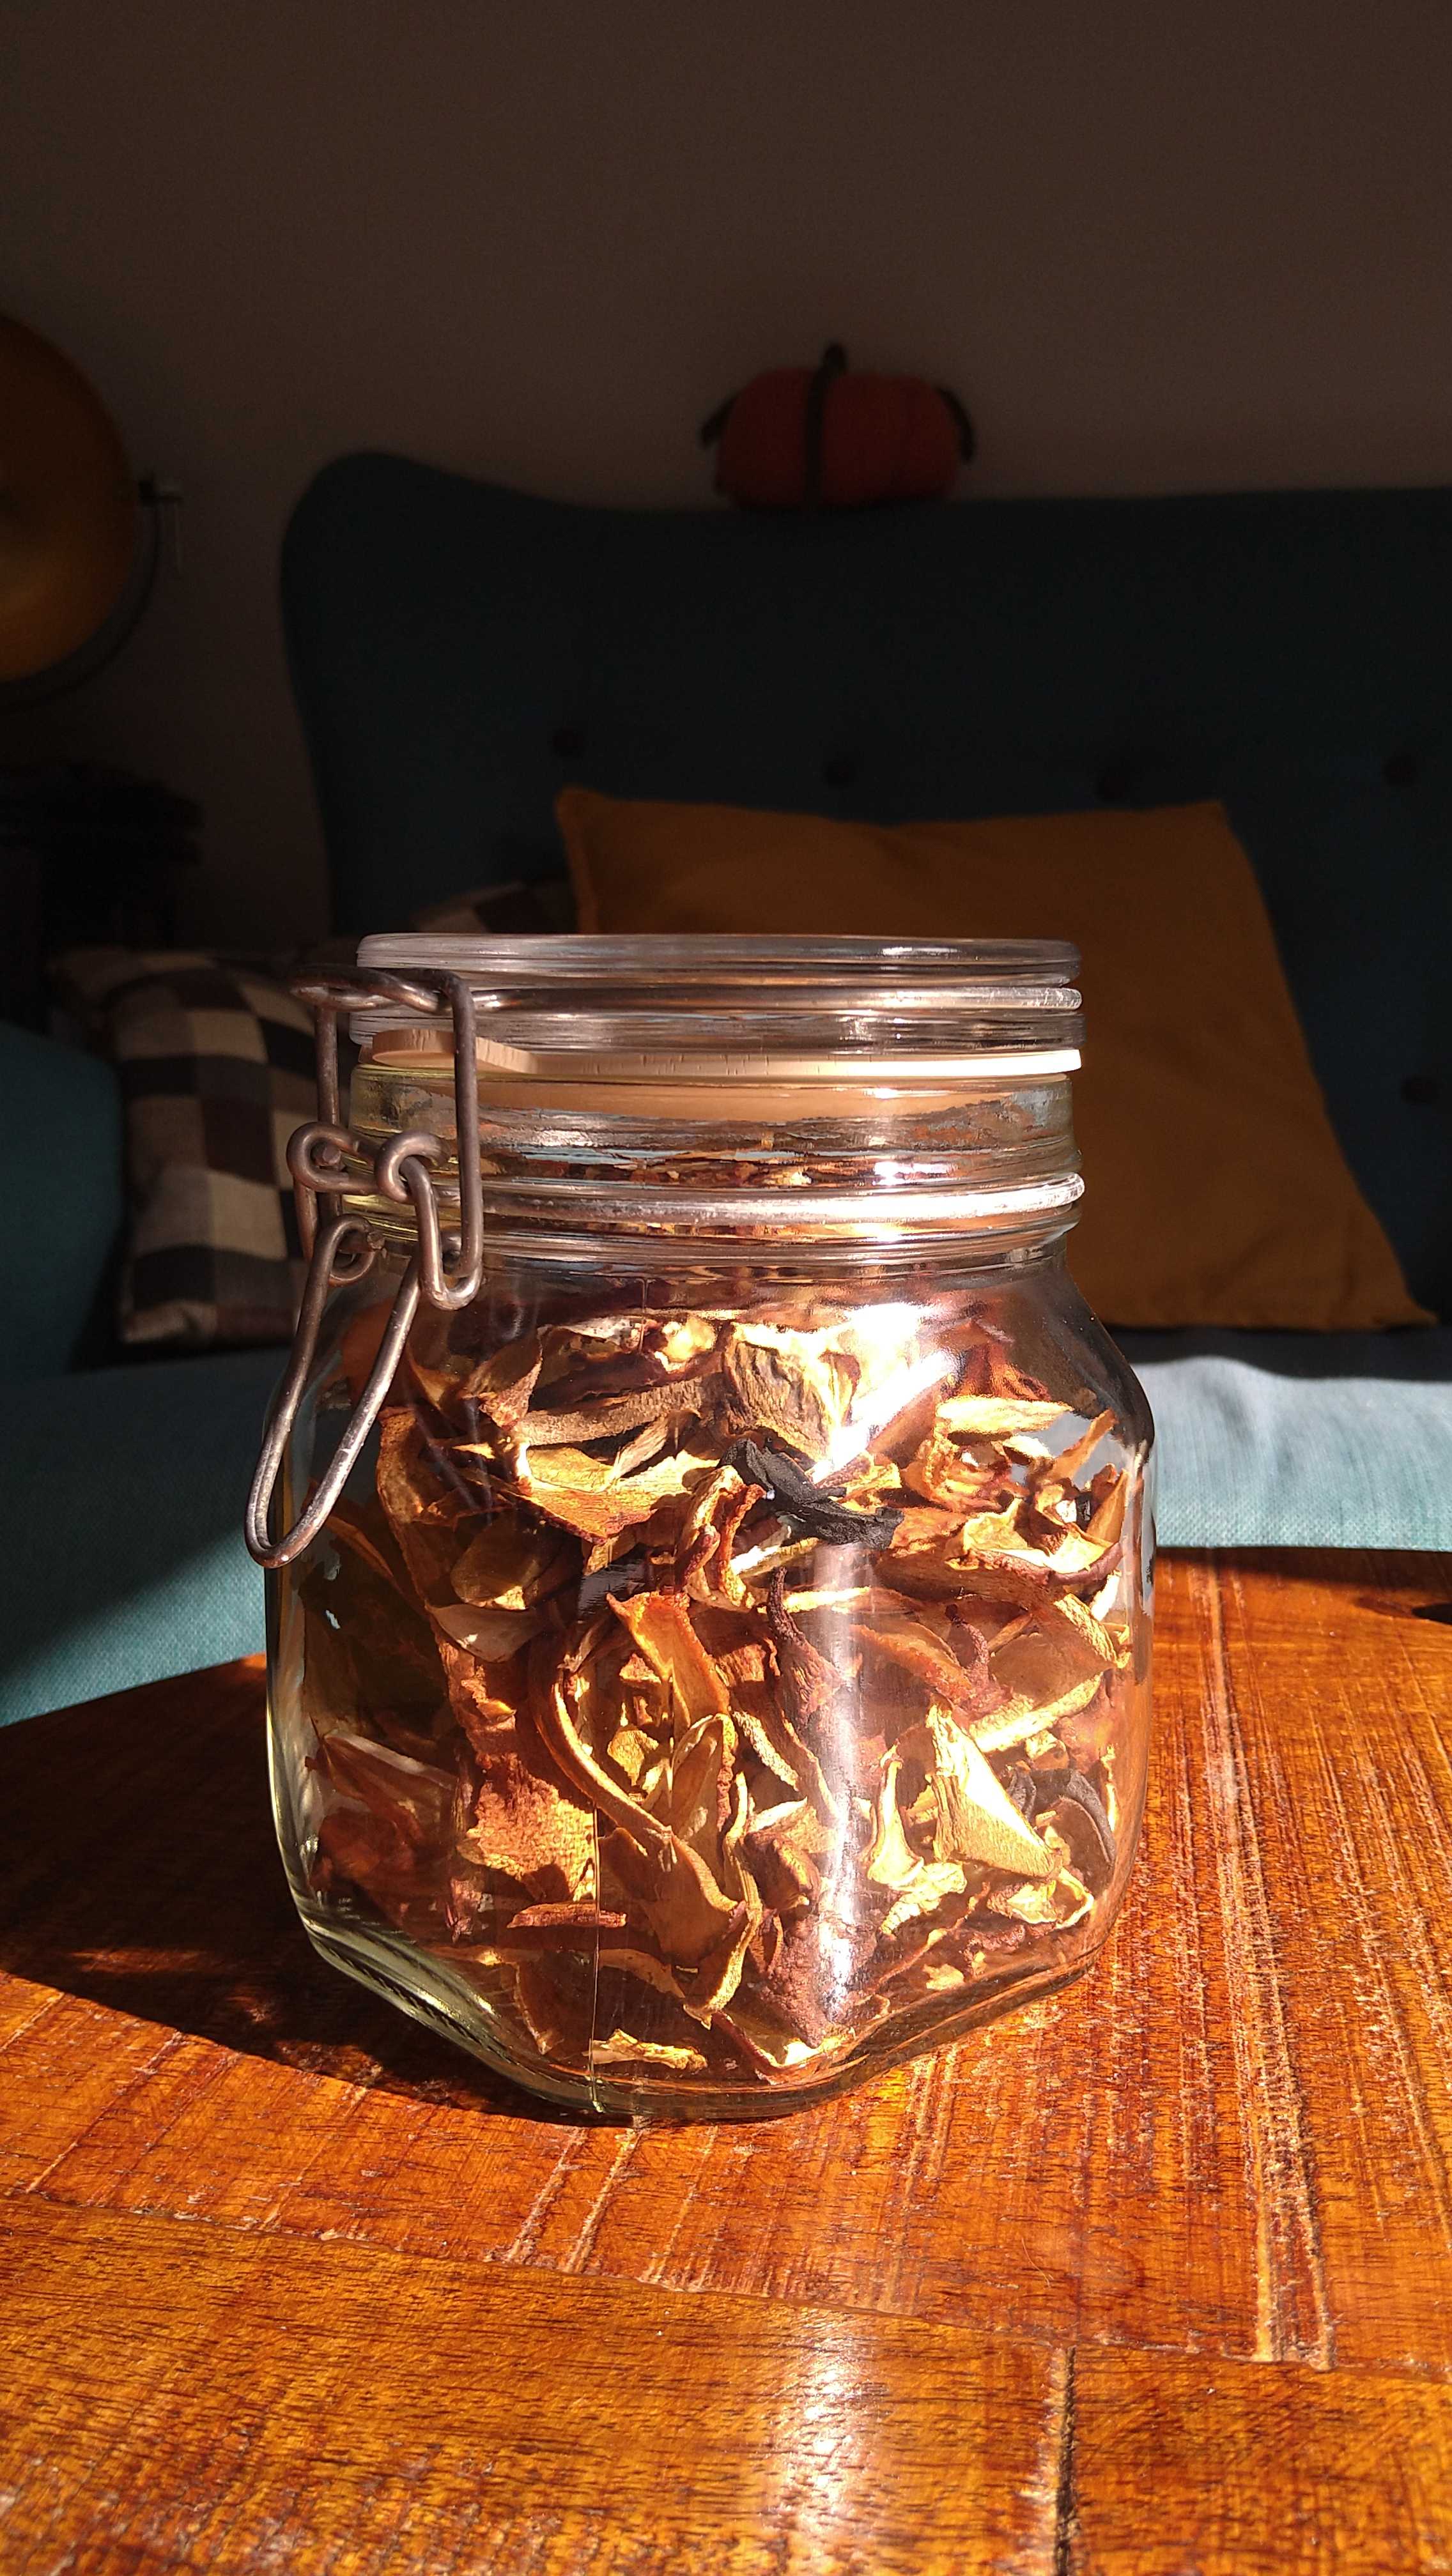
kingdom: Fungi
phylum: Basidiomycota
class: Agaricomycetes
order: Boletales
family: Boletaceae
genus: Boletus
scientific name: Boletus edulis
